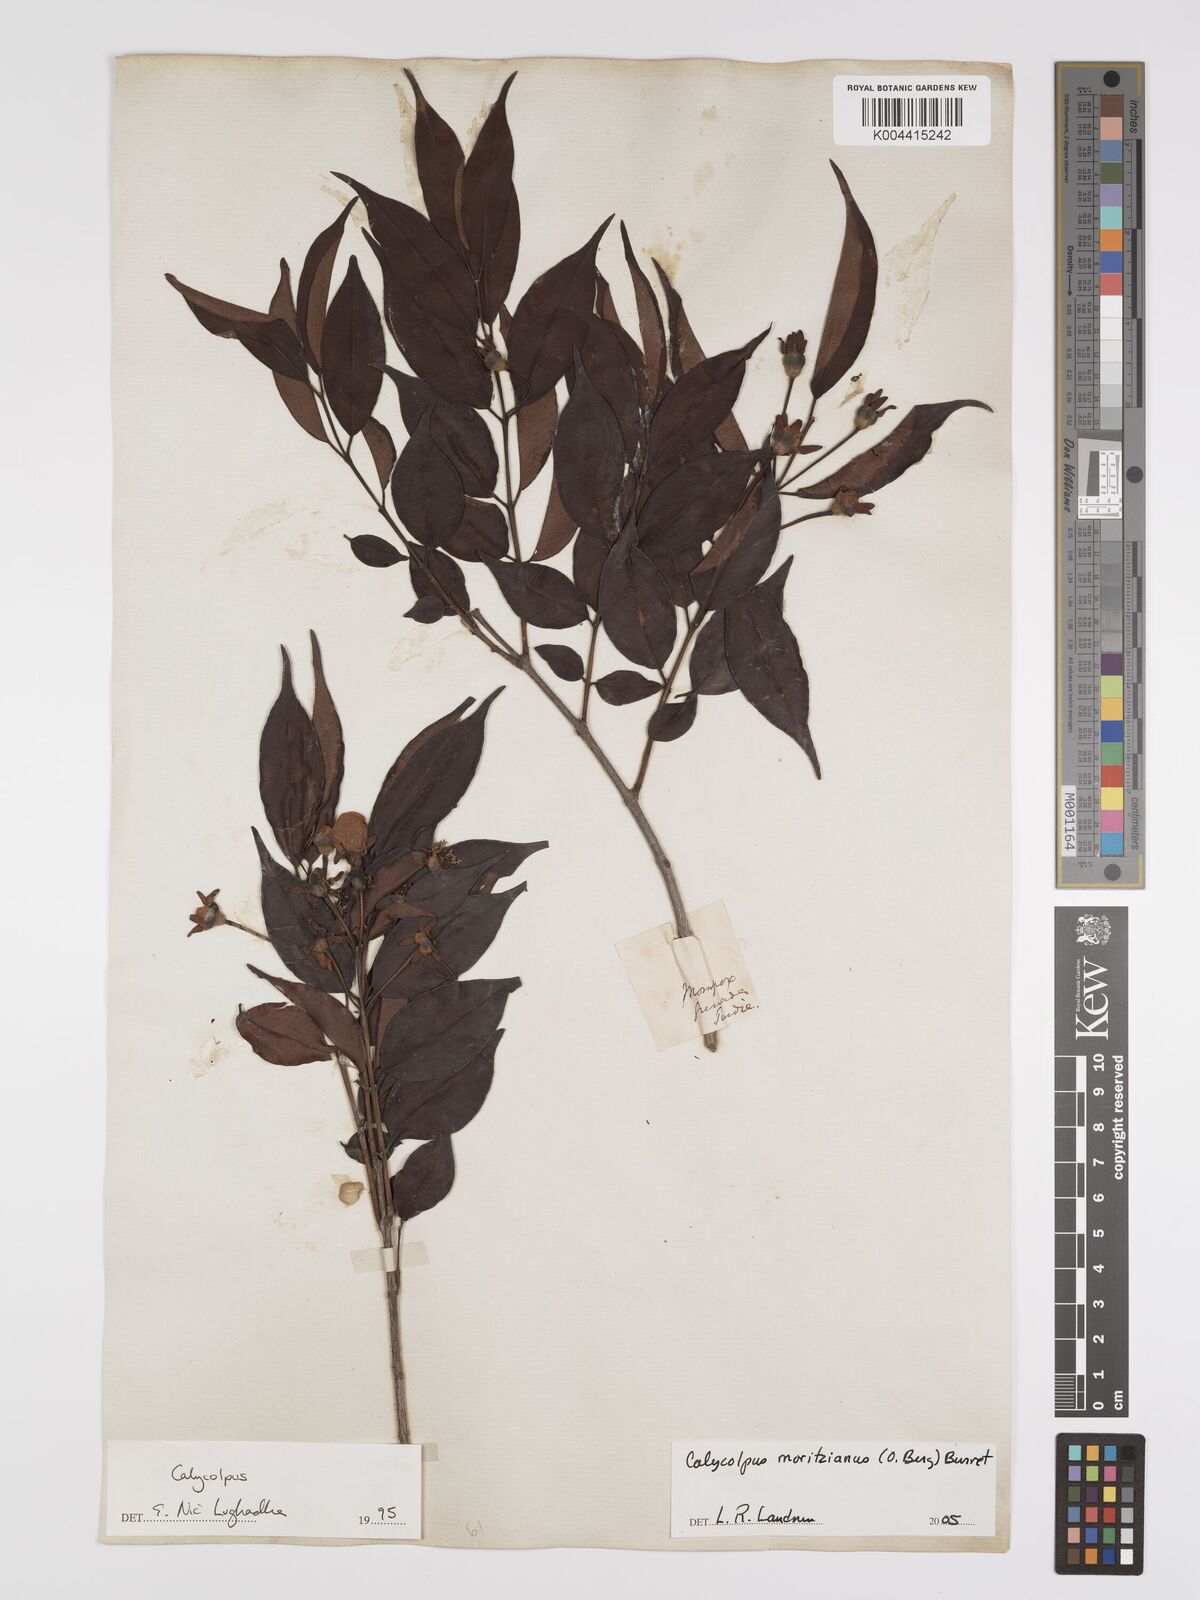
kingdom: Plantae
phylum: Tracheophyta
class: Magnoliopsida
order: Myrtales
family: Myrtaceae
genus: Calycolpus
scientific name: Calycolpus moritzianus
